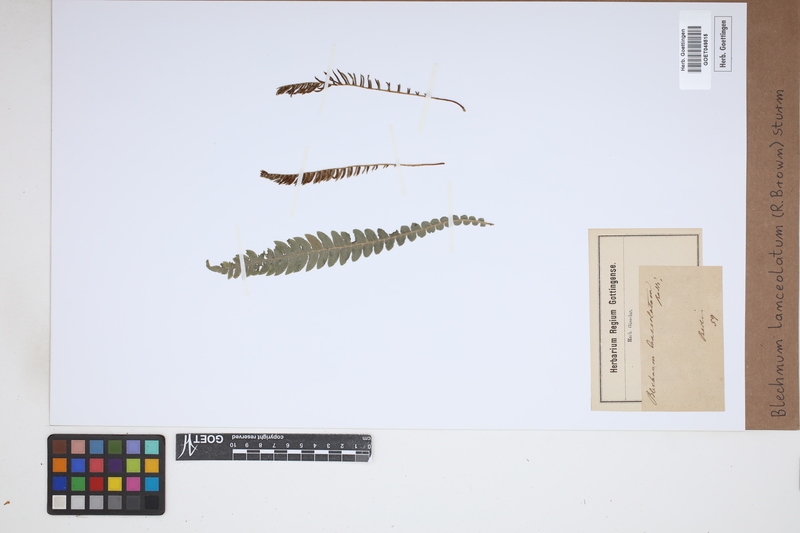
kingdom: Plantae
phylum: Tracheophyta
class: Polypodiopsida
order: Polypodiales
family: Blechnaceae
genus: Austroblechnum
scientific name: Austroblechnum lanceolatum
